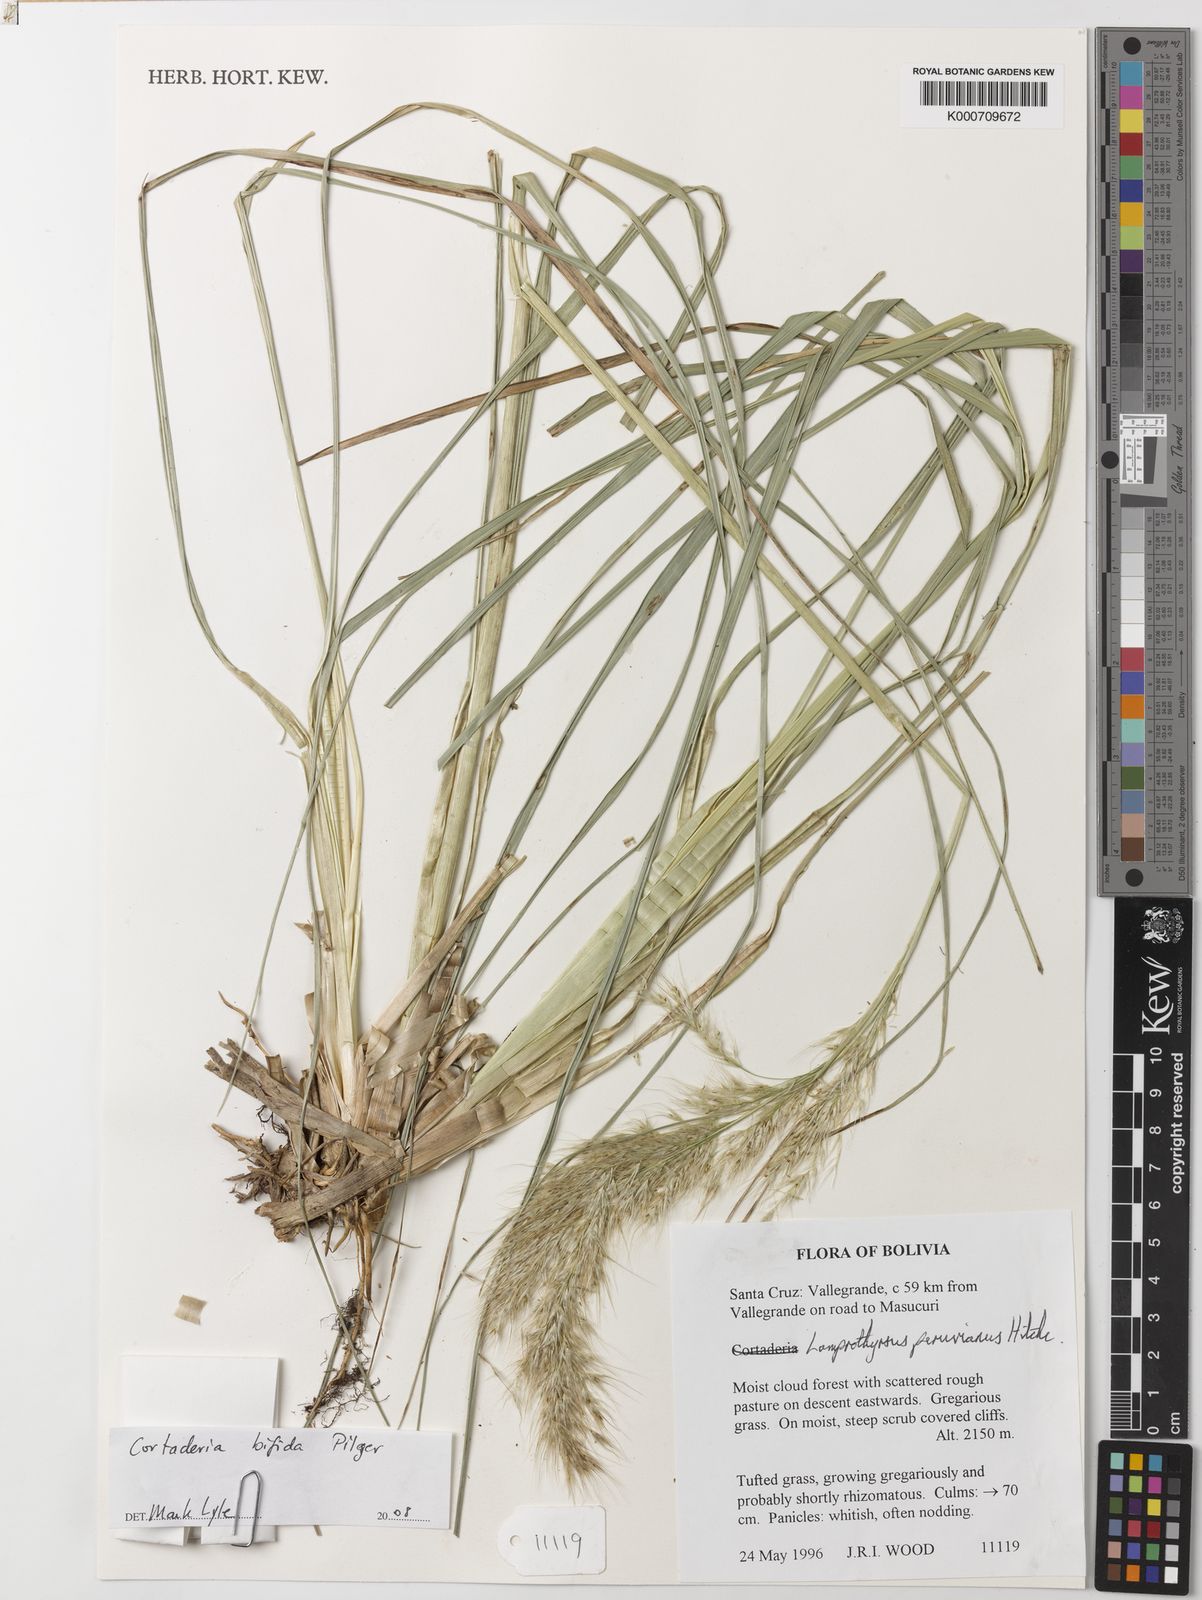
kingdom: Plantae
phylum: Tracheophyta
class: Liliopsida
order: Poales
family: Poaceae
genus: Cortaderia
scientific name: Cortaderia bifida
